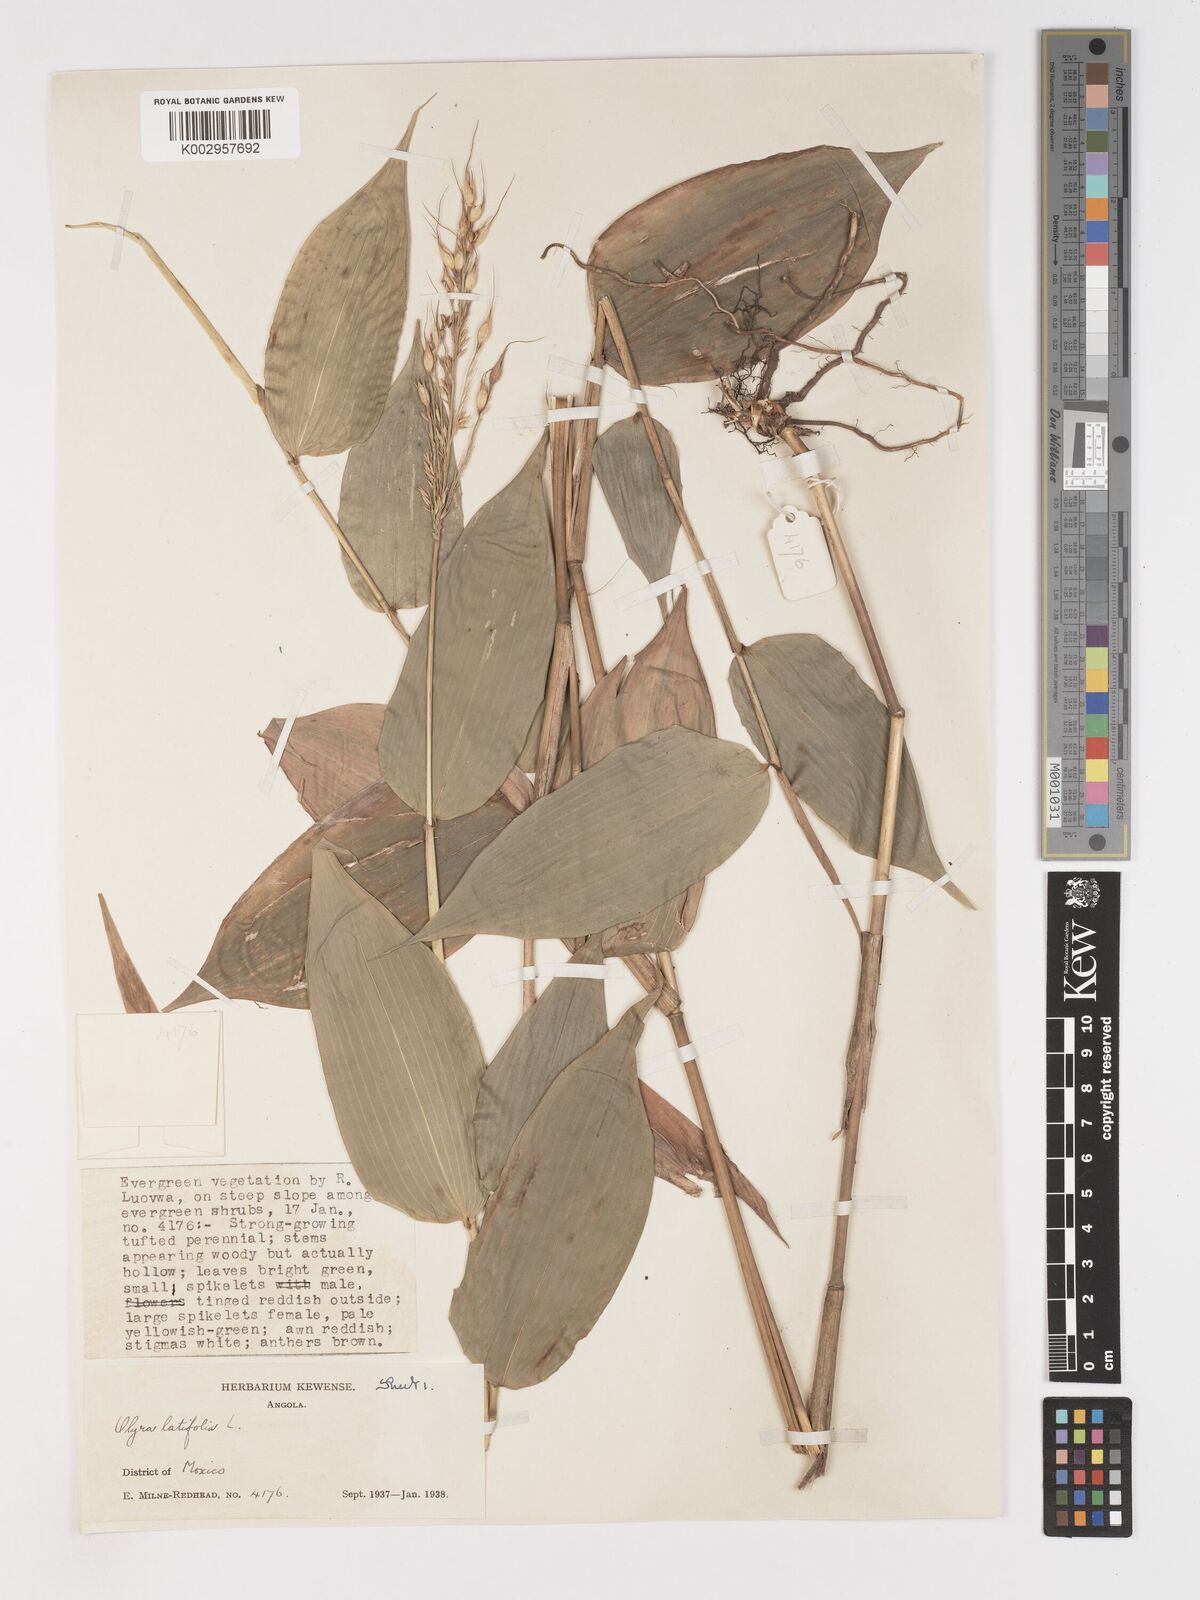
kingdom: Plantae
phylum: Tracheophyta
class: Liliopsida
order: Poales
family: Poaceae
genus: Olyra
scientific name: Olyra latifolia
